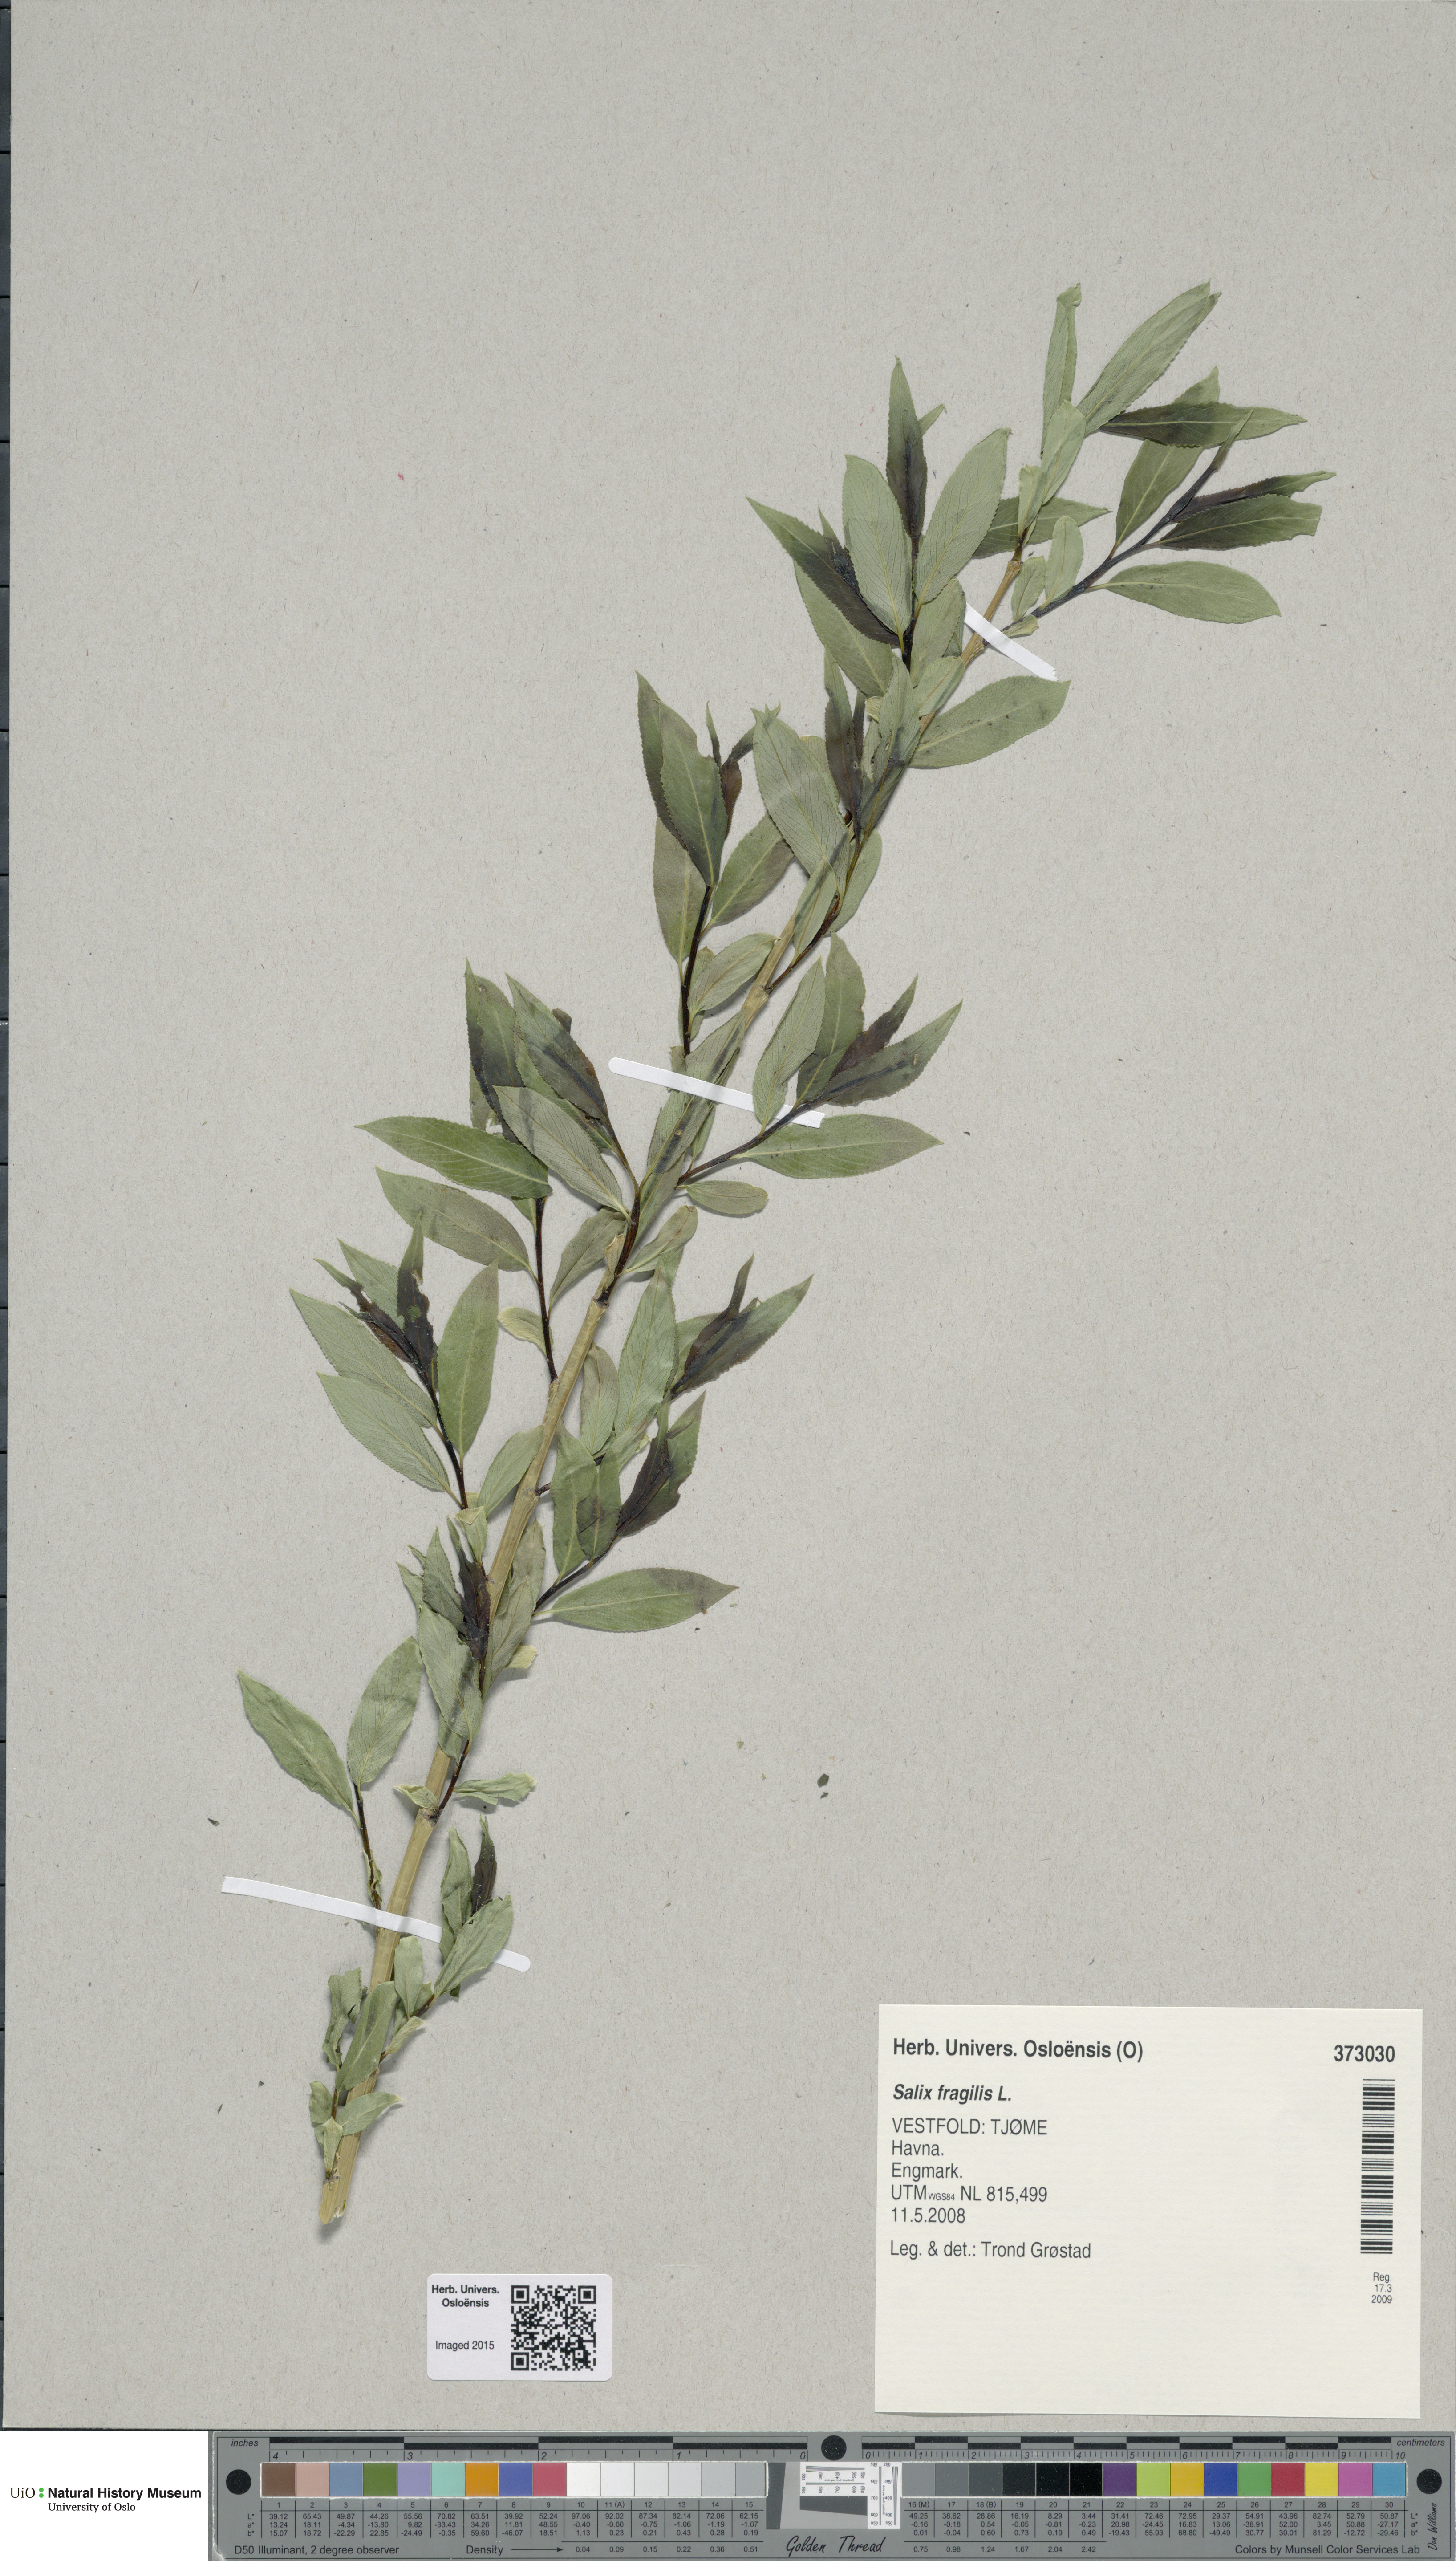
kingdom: Plantae
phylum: Tracheophyta
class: Magnoliopsida
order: Malpighiales
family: Salicaceae
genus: Salix
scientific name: Salix alba
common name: White willow
